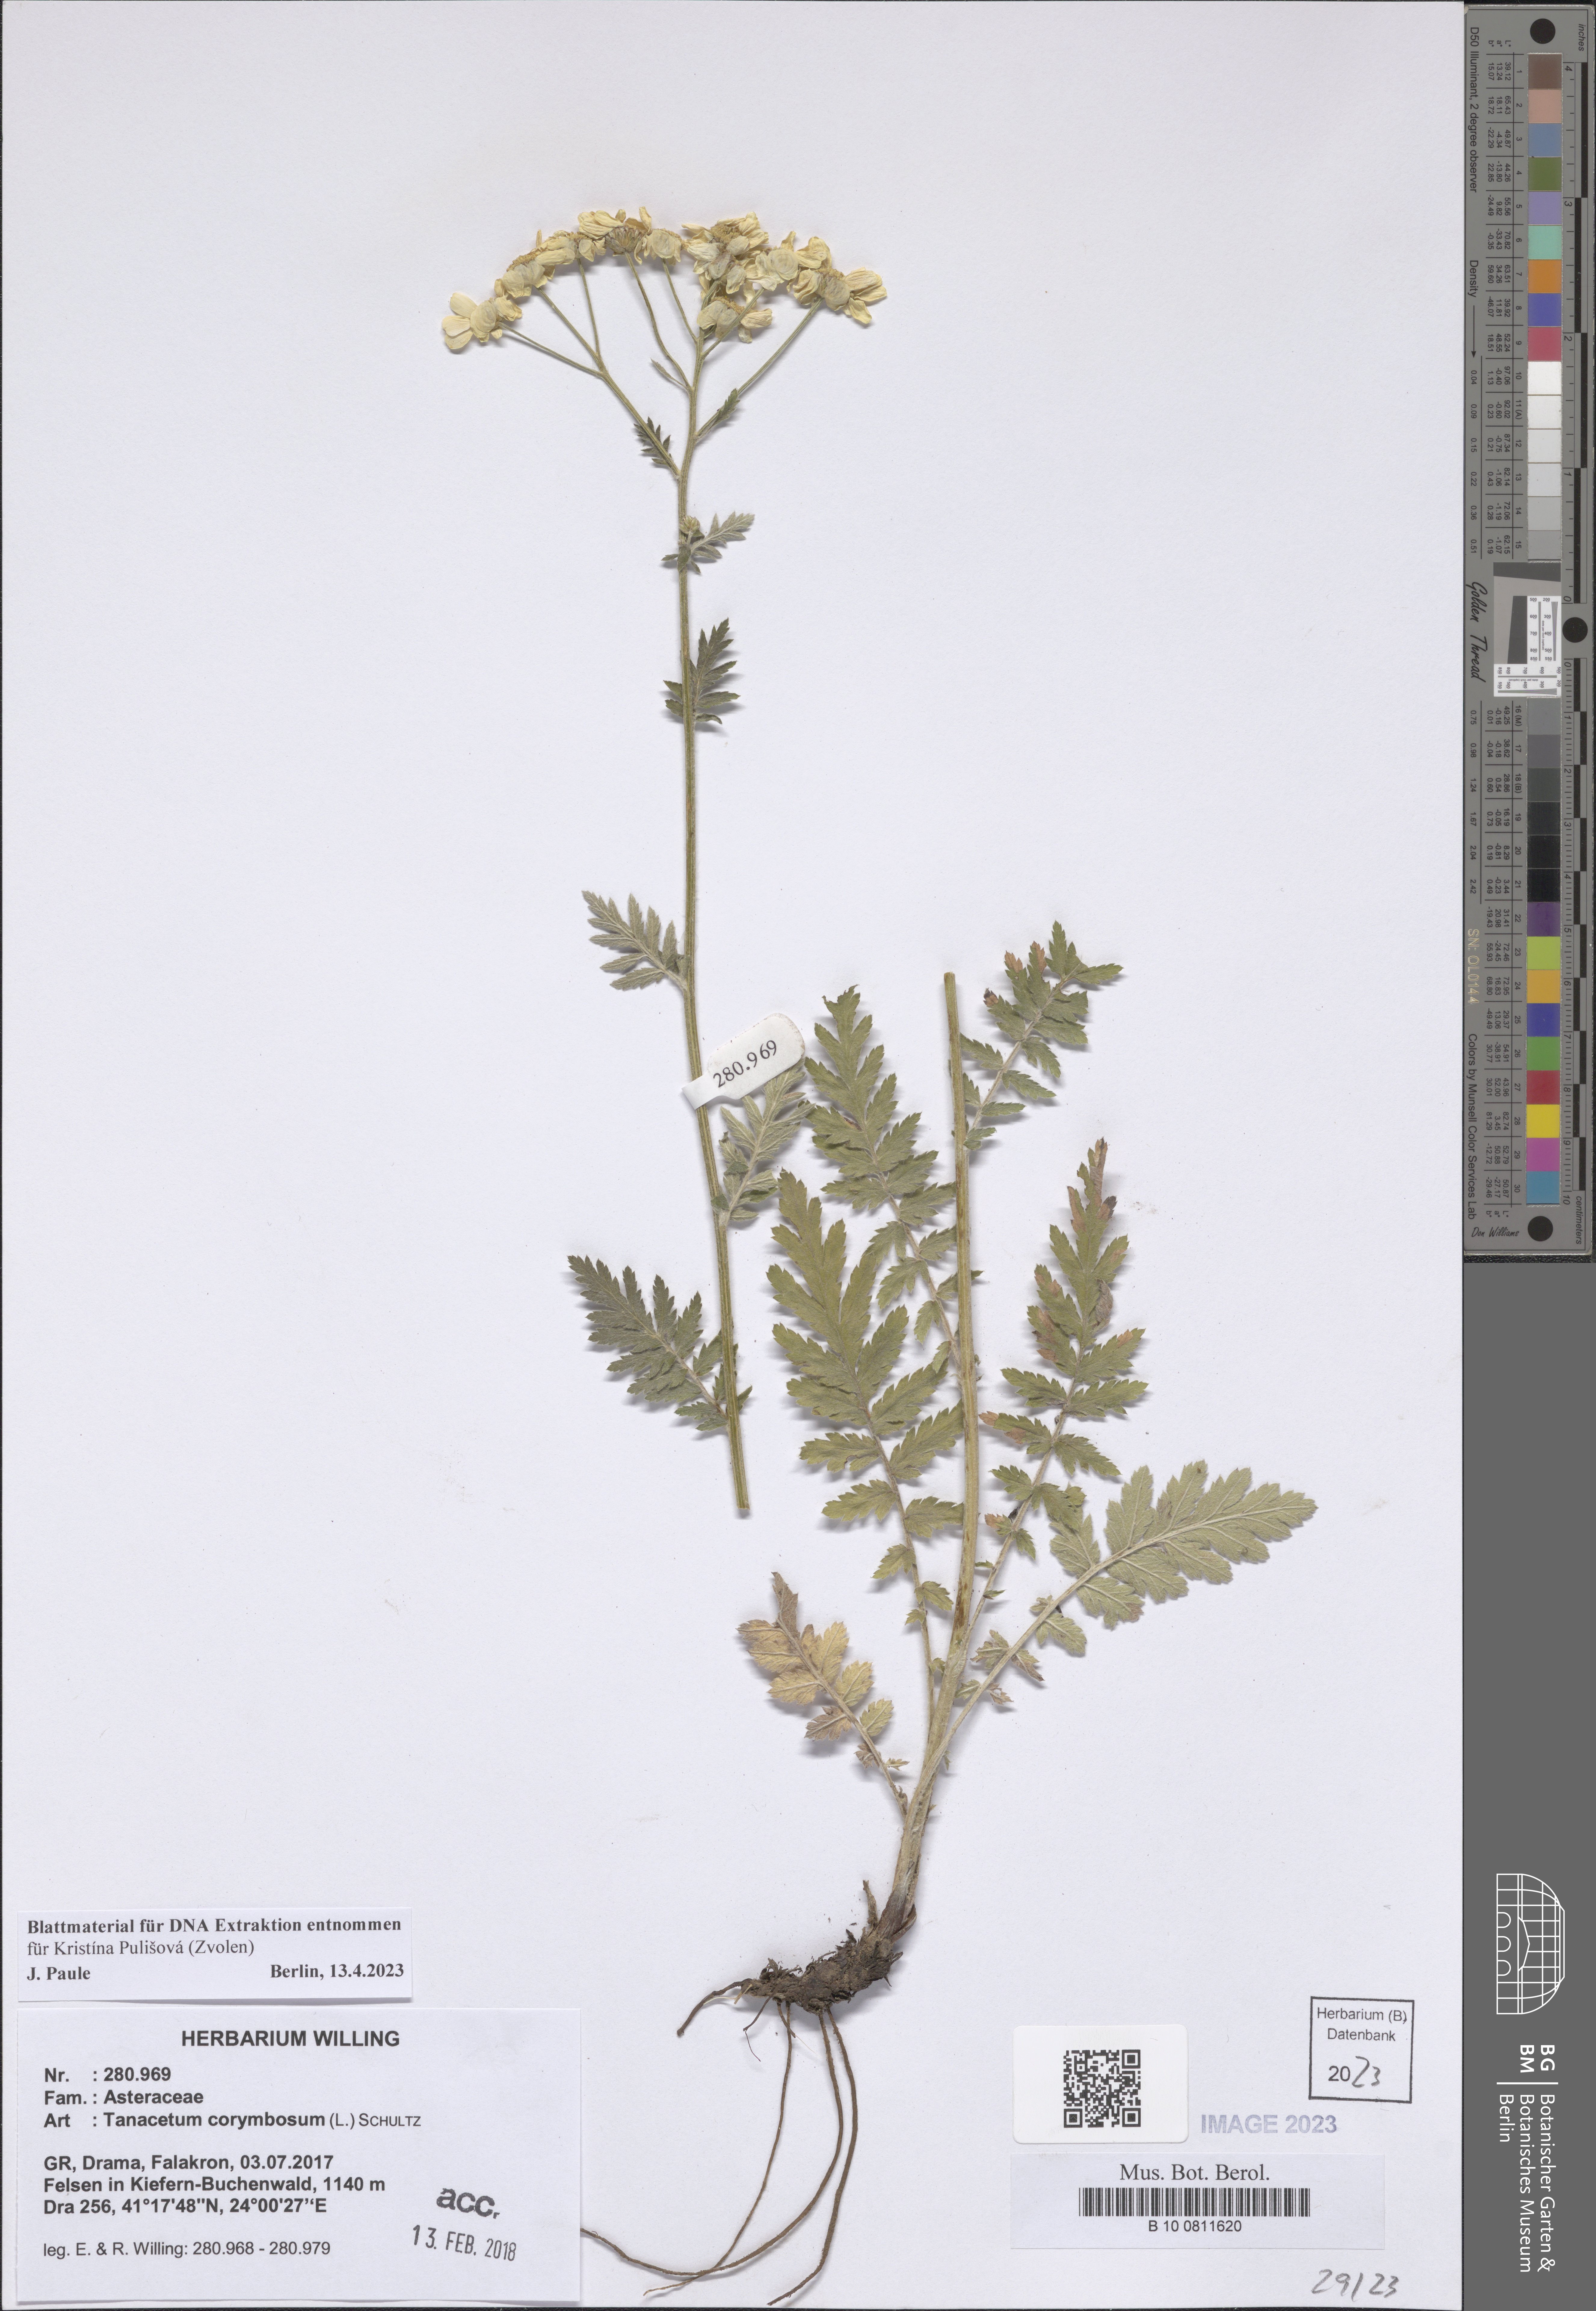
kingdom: Plantae
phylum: Tracheophyta
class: Magnoliopsida
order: Asterales
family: Asteraceae
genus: Tanacetum
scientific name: Tanacetum corymbosum
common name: Scentless feverfew
